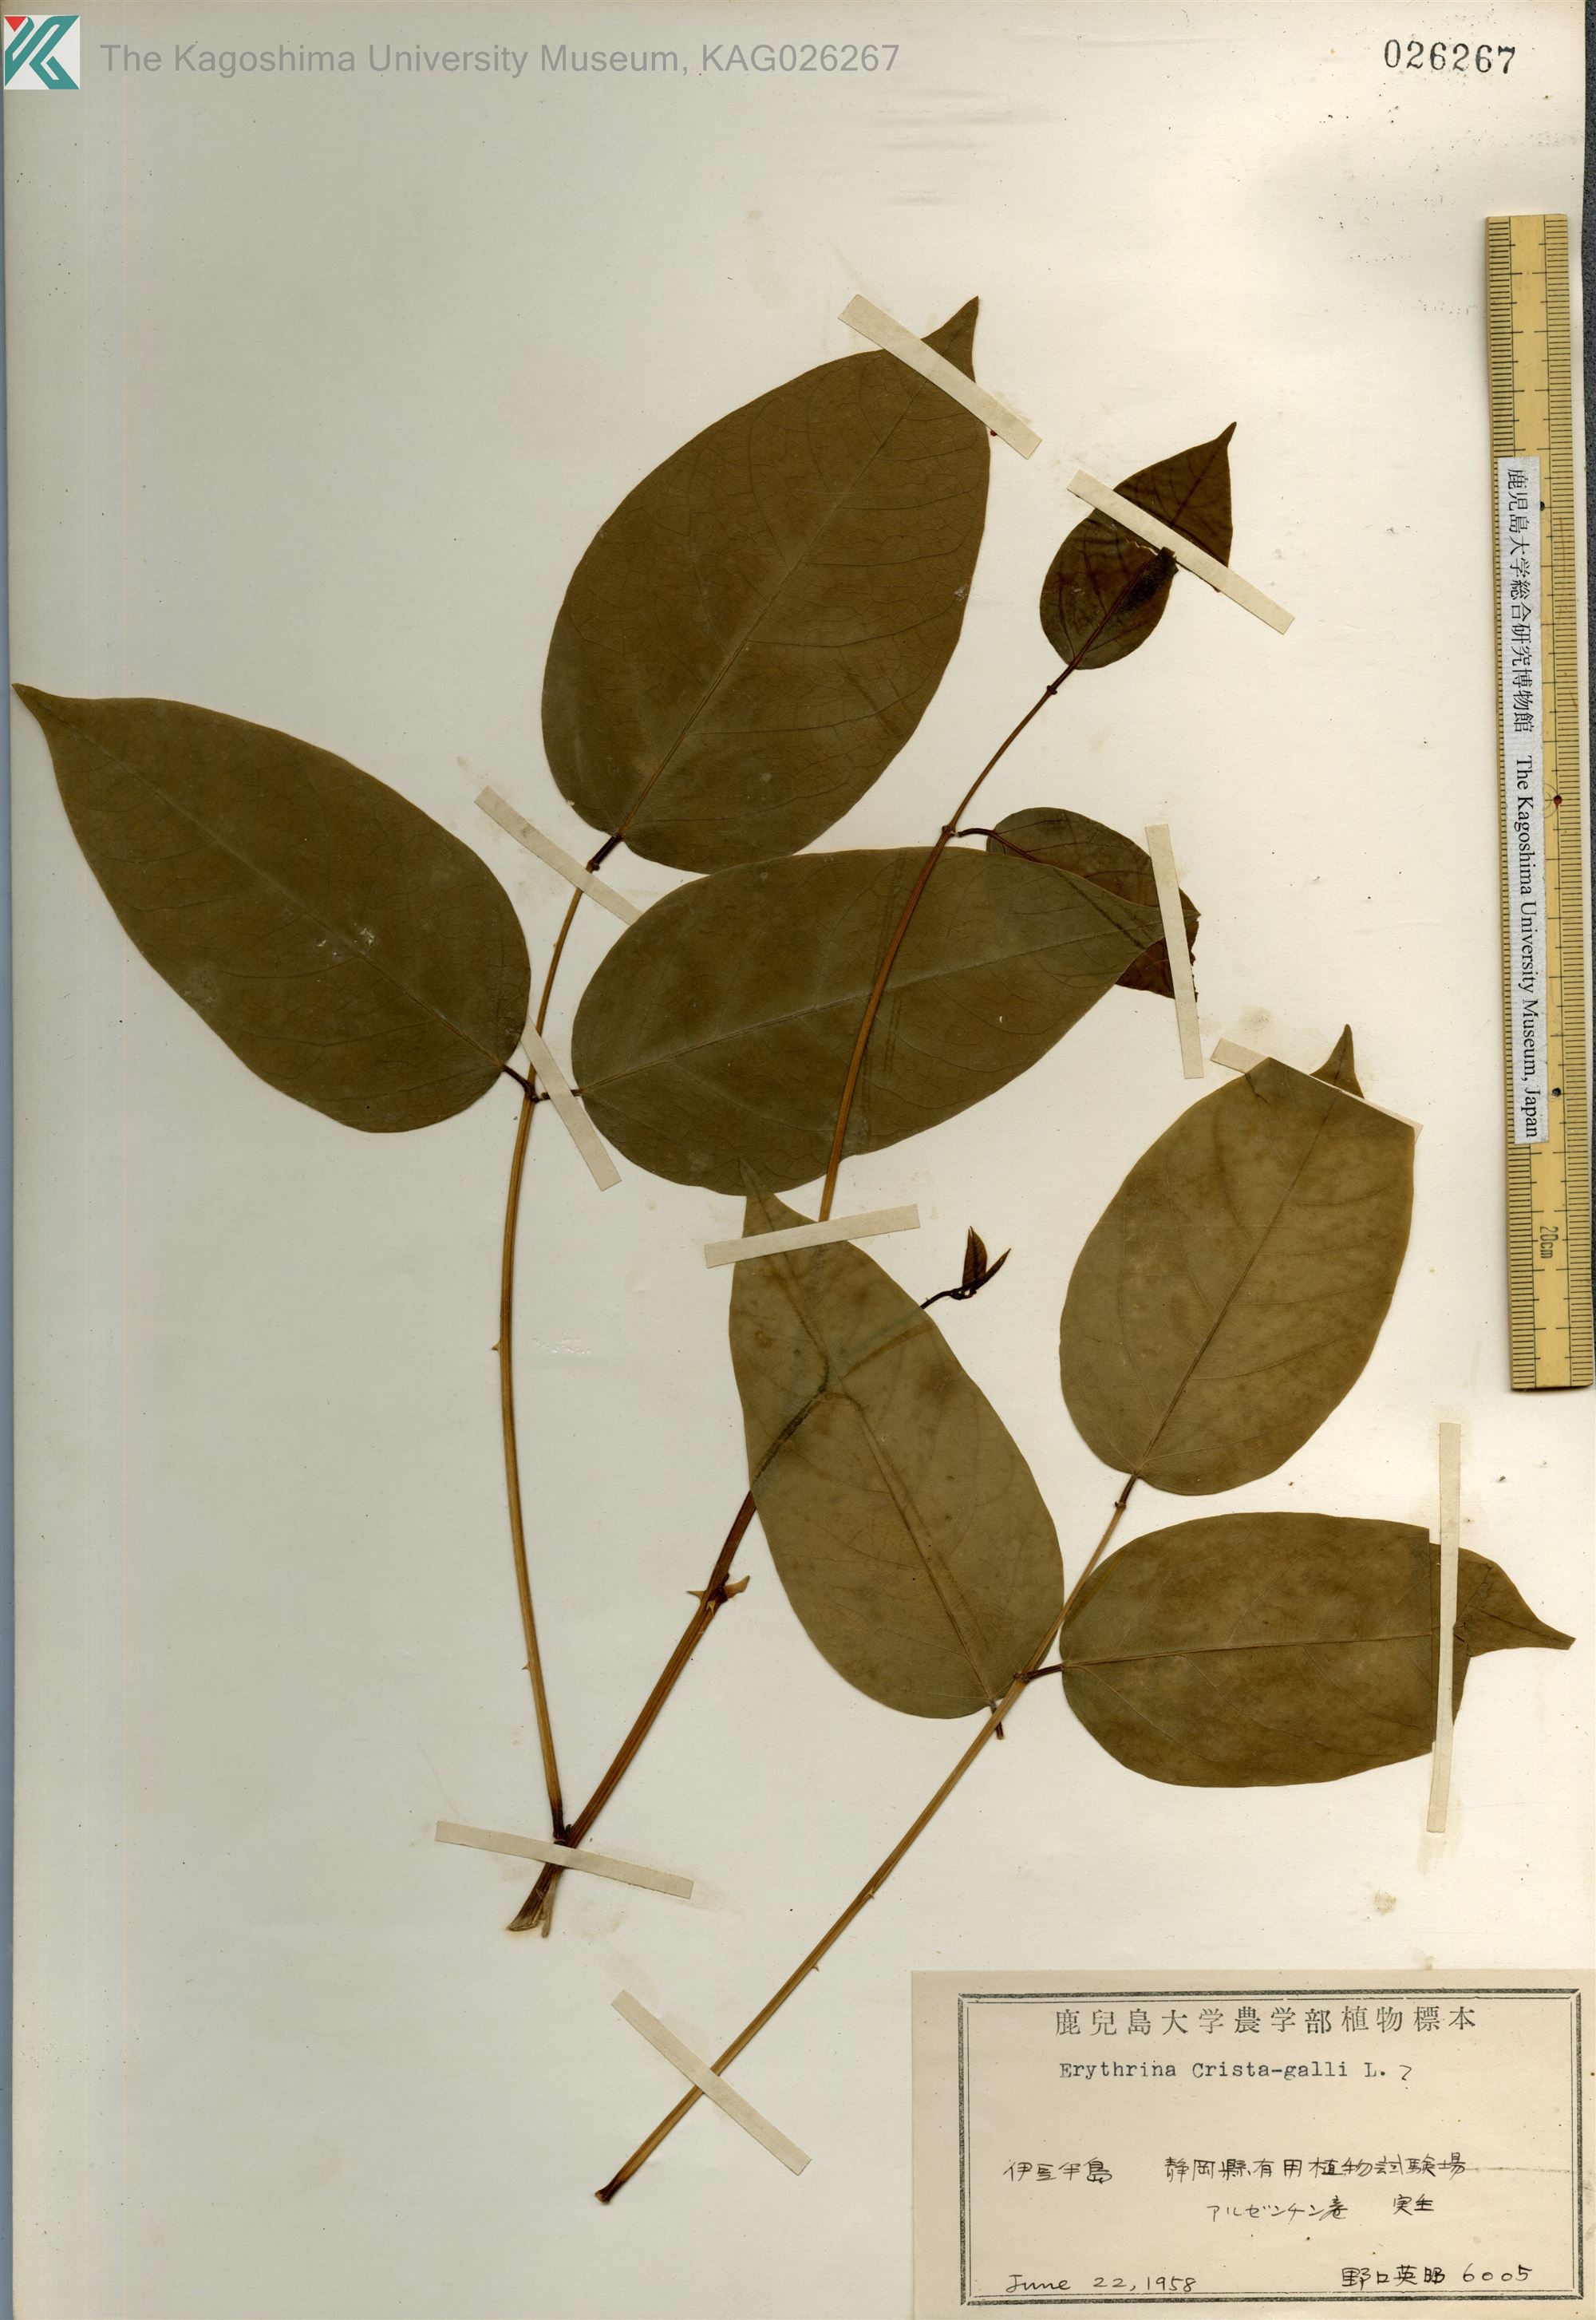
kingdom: Plantae
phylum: Tracheophyta
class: Magnoliopsida
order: Fabales
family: Fabaceae
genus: Erythrina
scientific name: Erythrina crista-galli
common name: Cockspur coral tree
